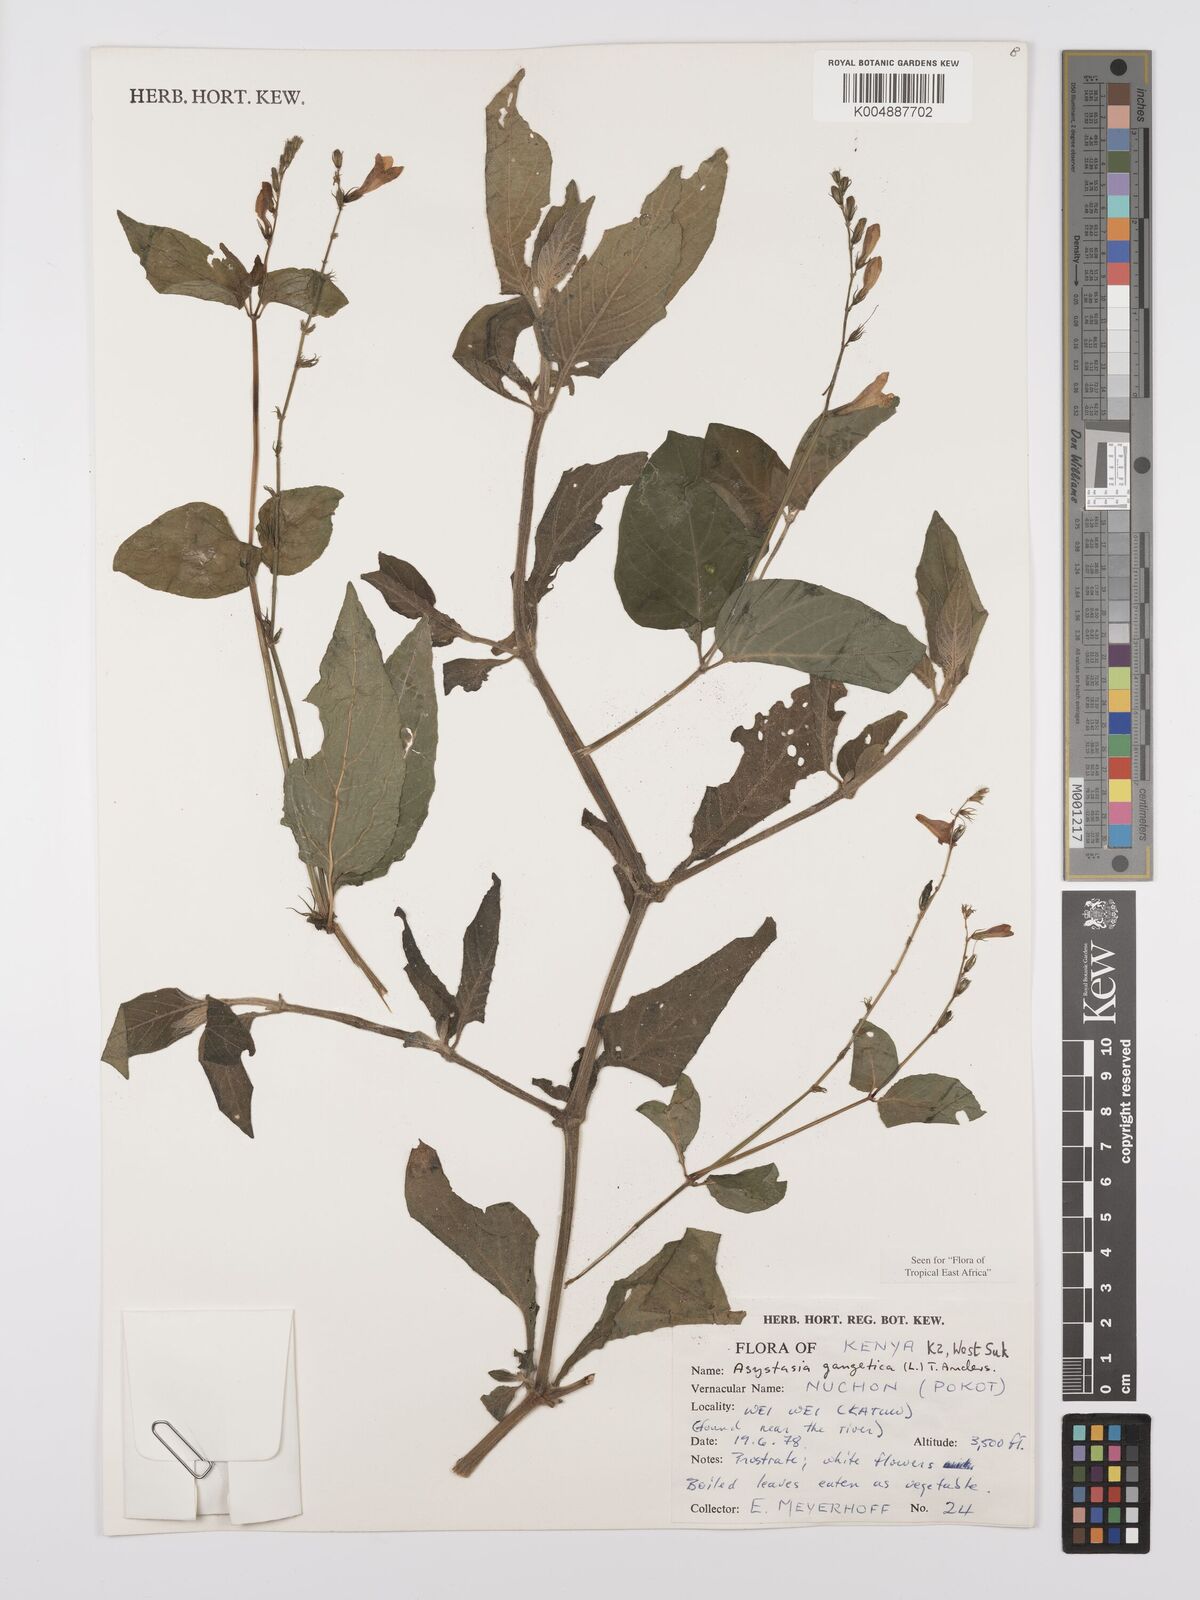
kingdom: Plantae
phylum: Tracheophyta
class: Magnoliopsida
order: Lamiales
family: Acanthaceae
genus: Asystasia
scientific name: Asystasia gangetica
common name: Chinese violet
